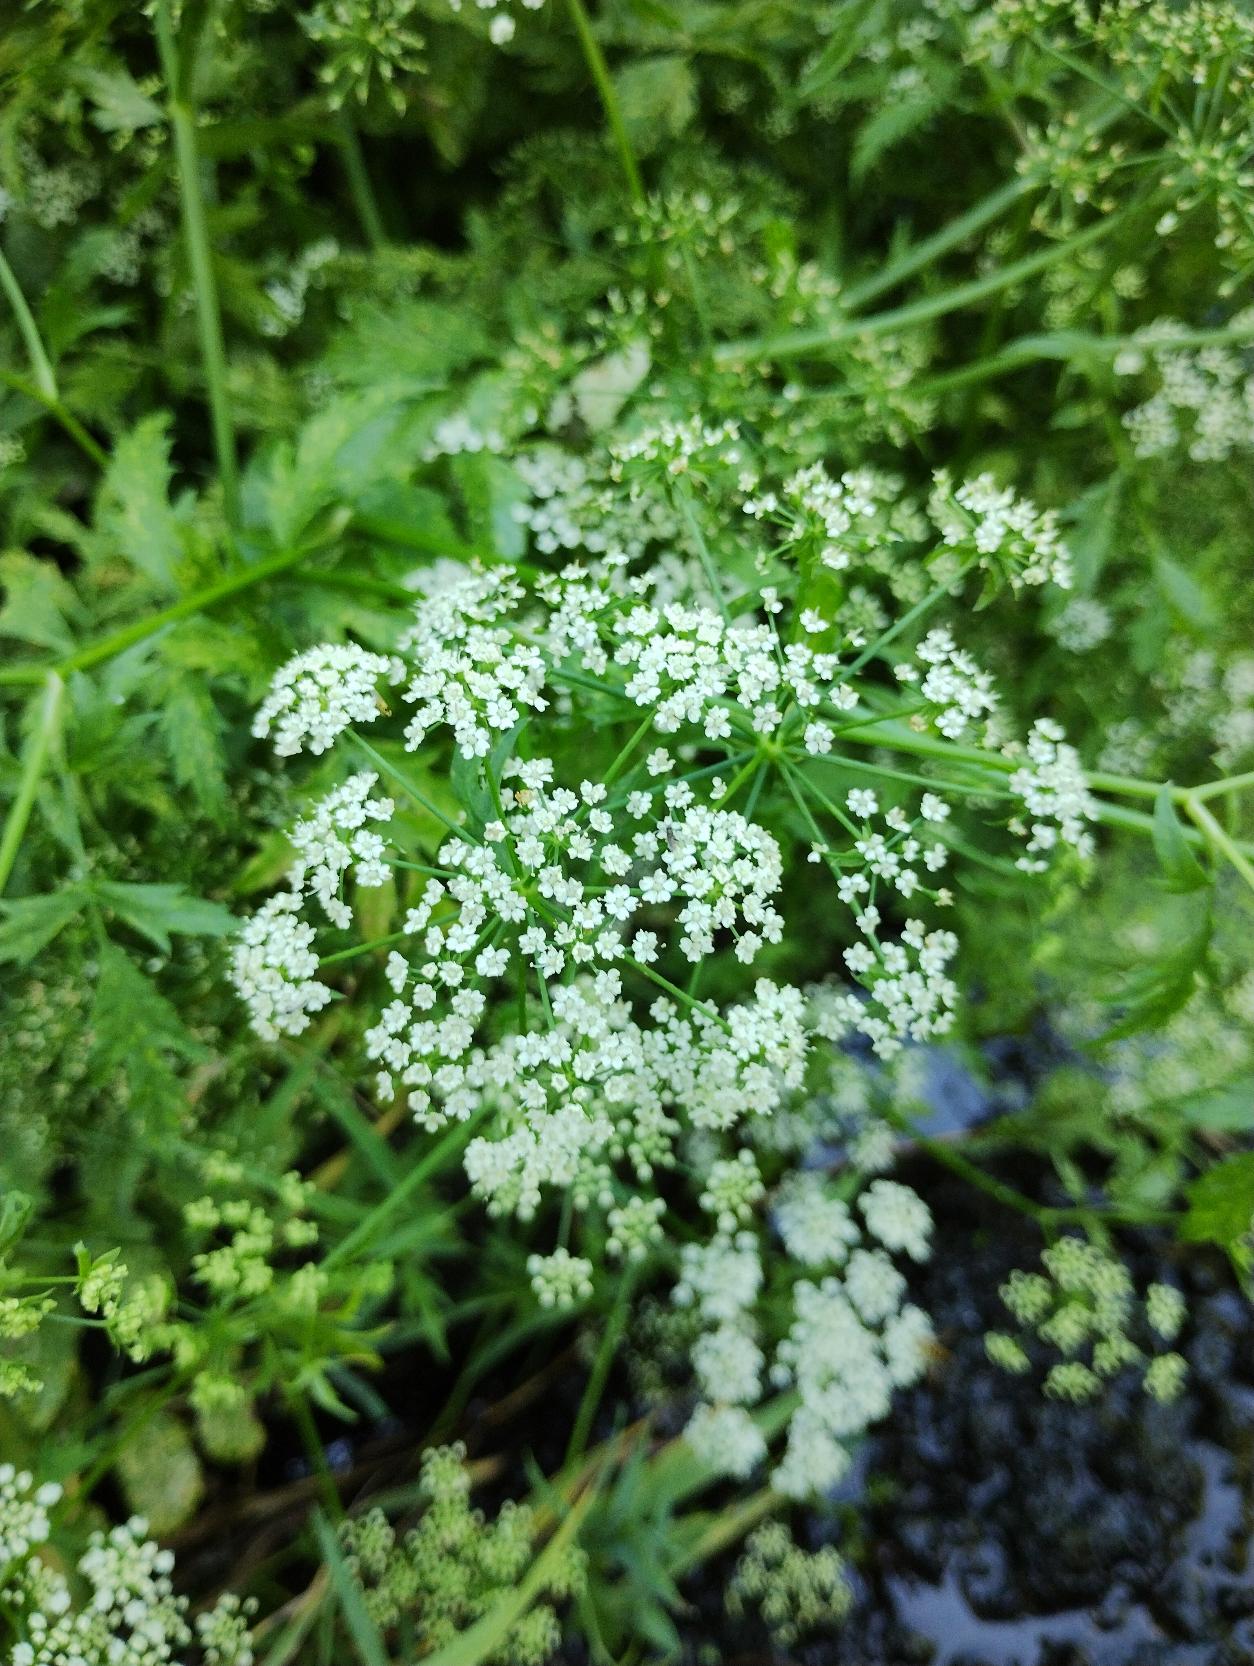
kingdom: Plantae
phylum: Tracheophyta
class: Magnoliopsida
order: Apiales
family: Apiaceae
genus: Berula
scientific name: Berula erecta
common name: Sideskærm
